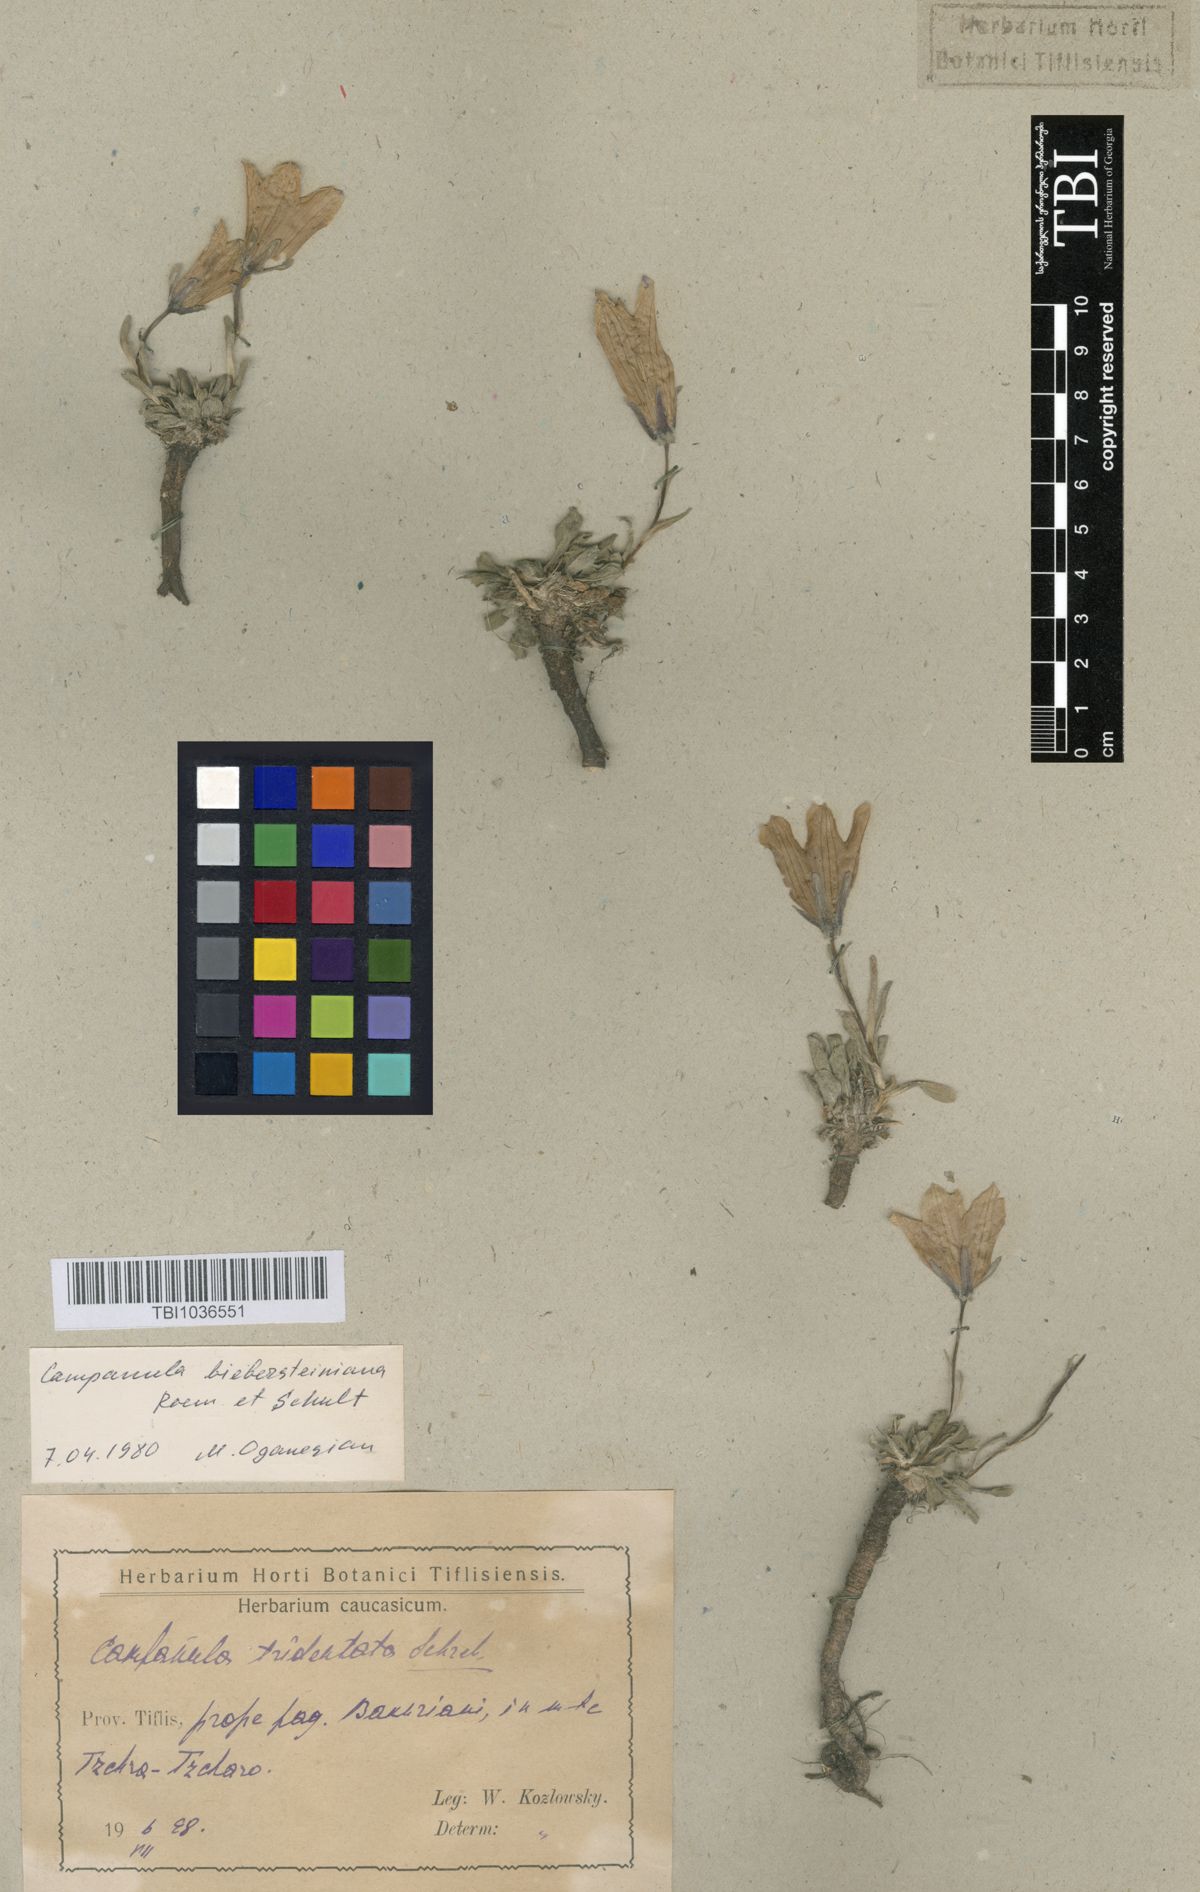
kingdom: Plantae
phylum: Tracheophyta
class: Magnoliopsida
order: Asterales
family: Campanulaceae
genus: Campanula
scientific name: Campanula tridentata
